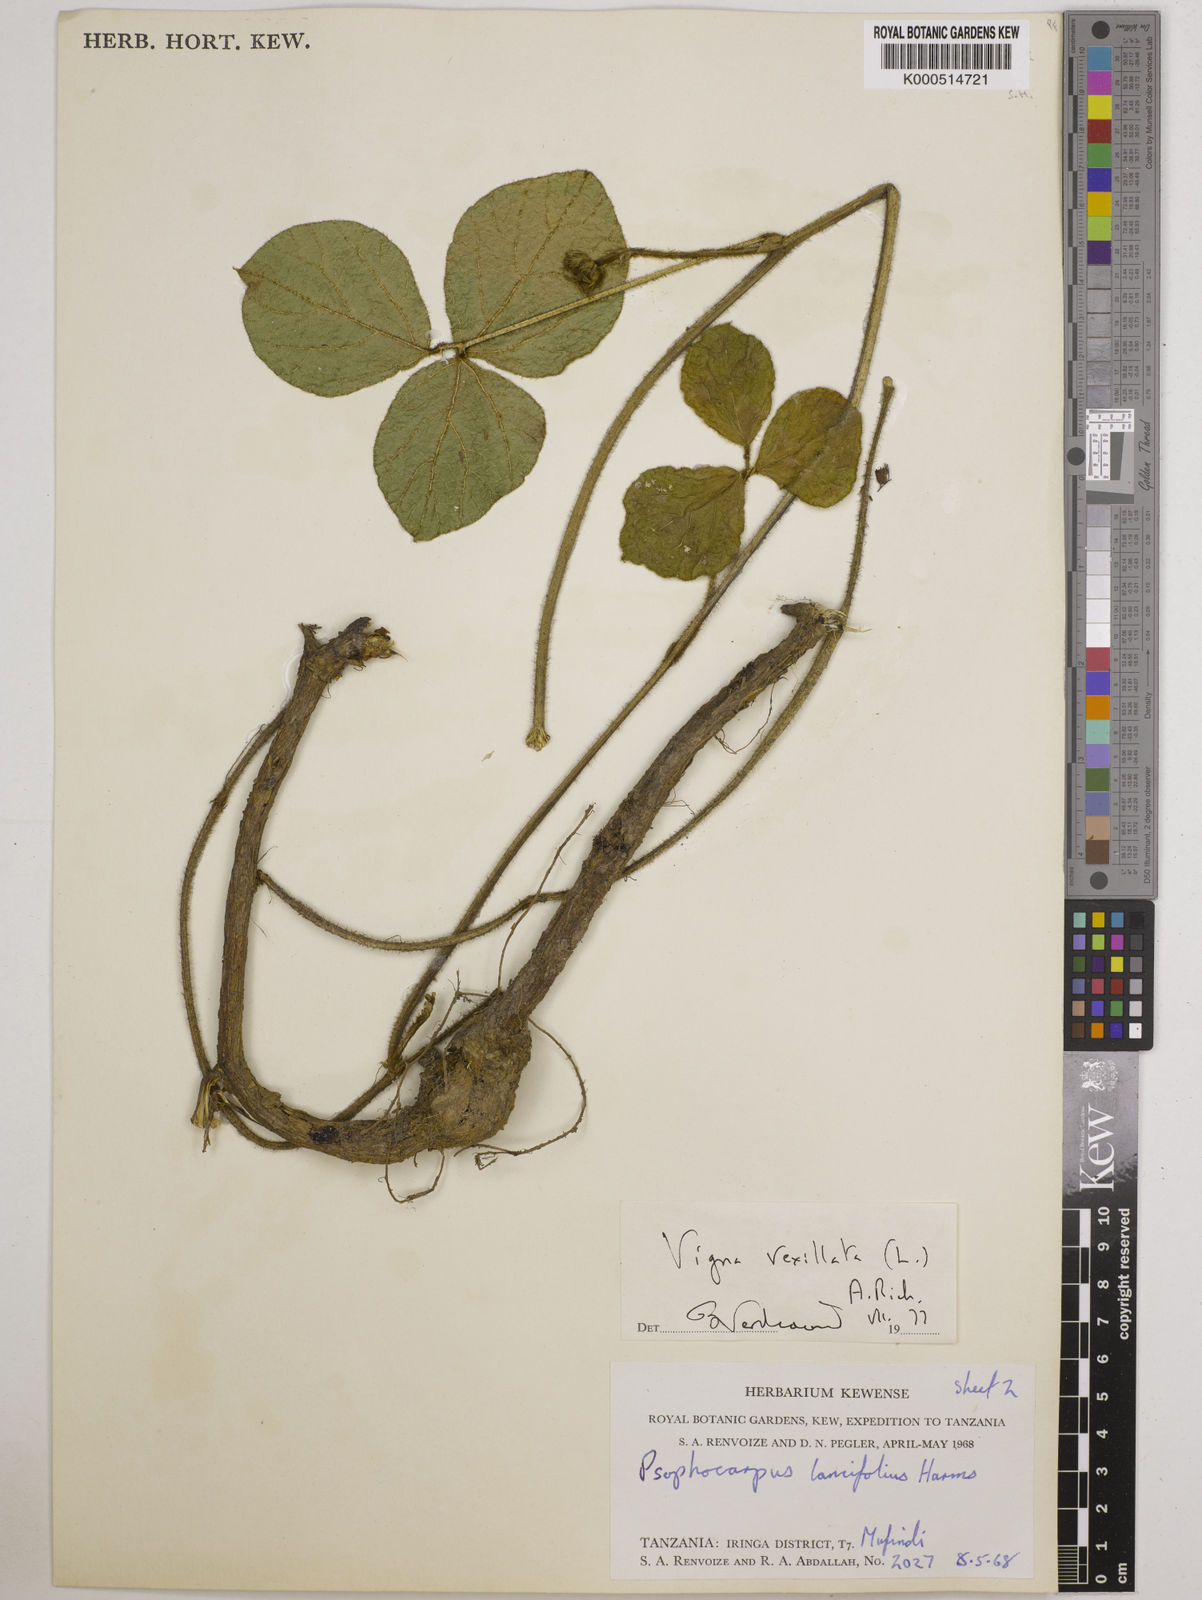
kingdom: Plantae
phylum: Tracheophyta
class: Magnoliopsida
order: Fabales
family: Fabaceae
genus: Vigna
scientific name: Vigna vexillata
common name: Zombi pea
